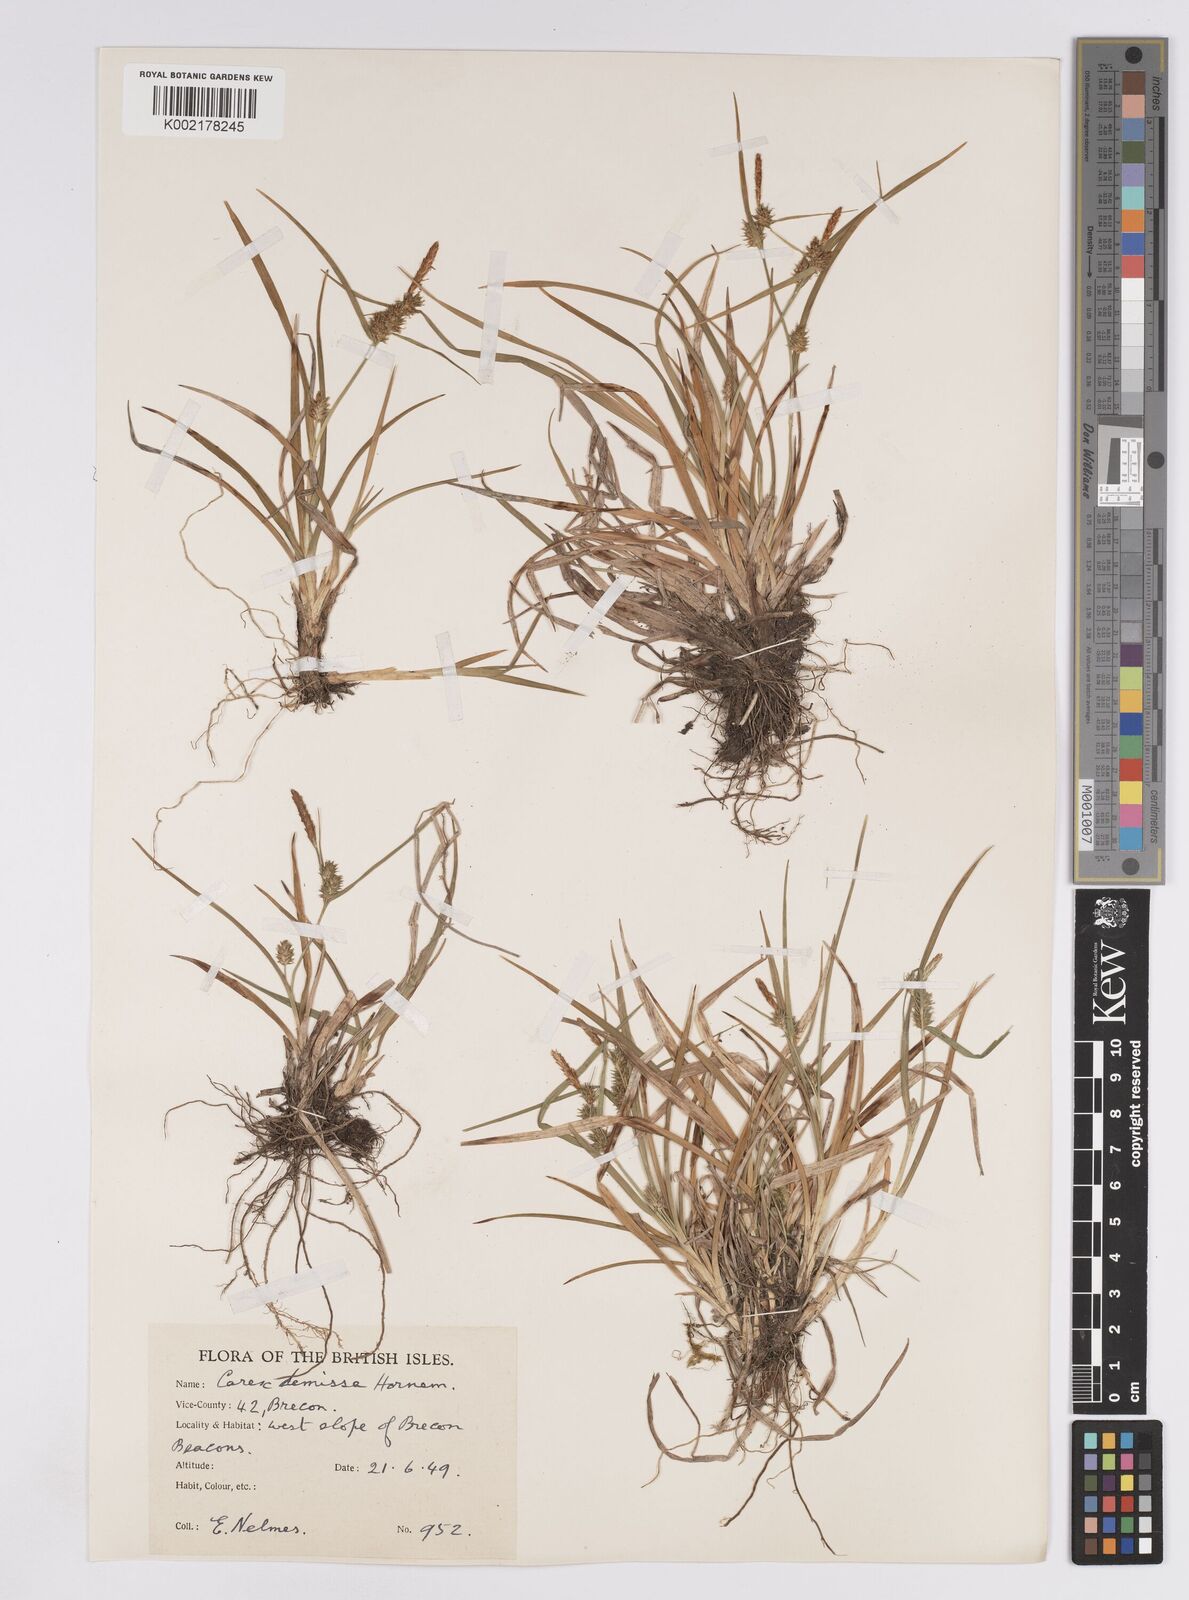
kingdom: Plantae
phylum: Tracheophyta
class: Liliopsida
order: Poales
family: Cyperaceae
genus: Carex
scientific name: Carex demissa
